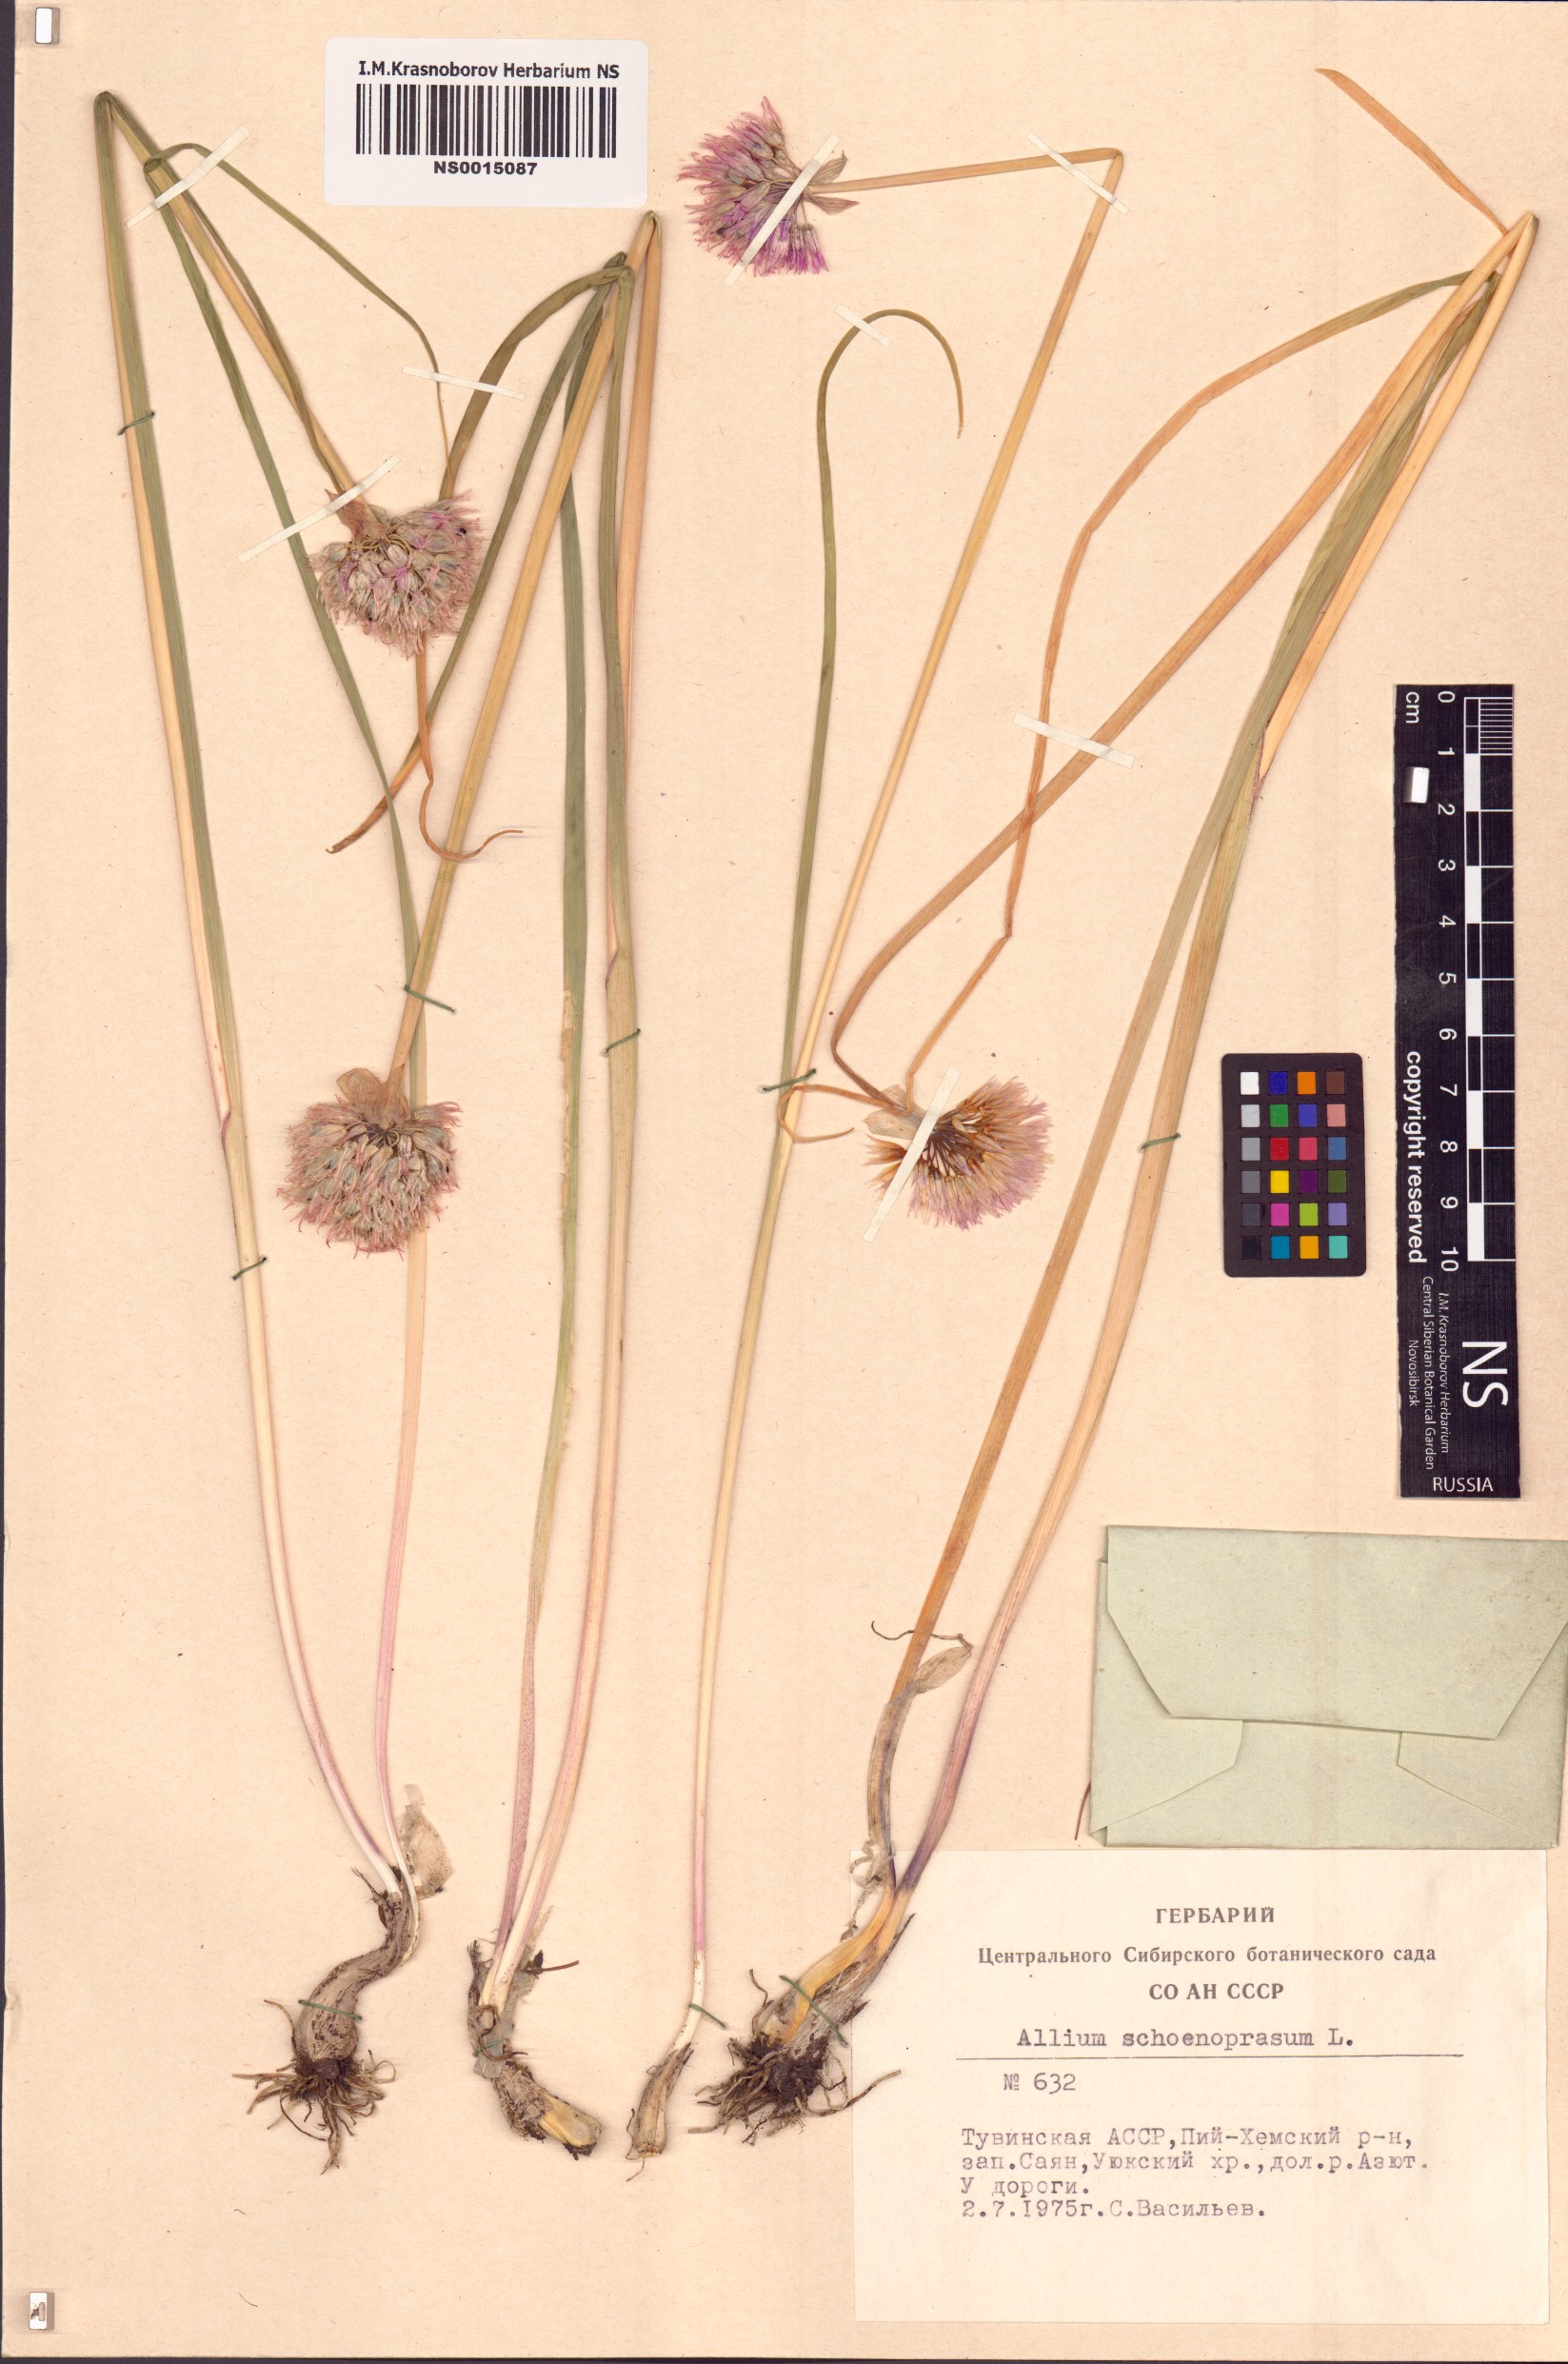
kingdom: Plantae
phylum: Tracheophyta
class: Liliopsida
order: Asparagales
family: Amaryllidaceae
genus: Allium
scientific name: Allium schoenoprasum
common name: Chives
